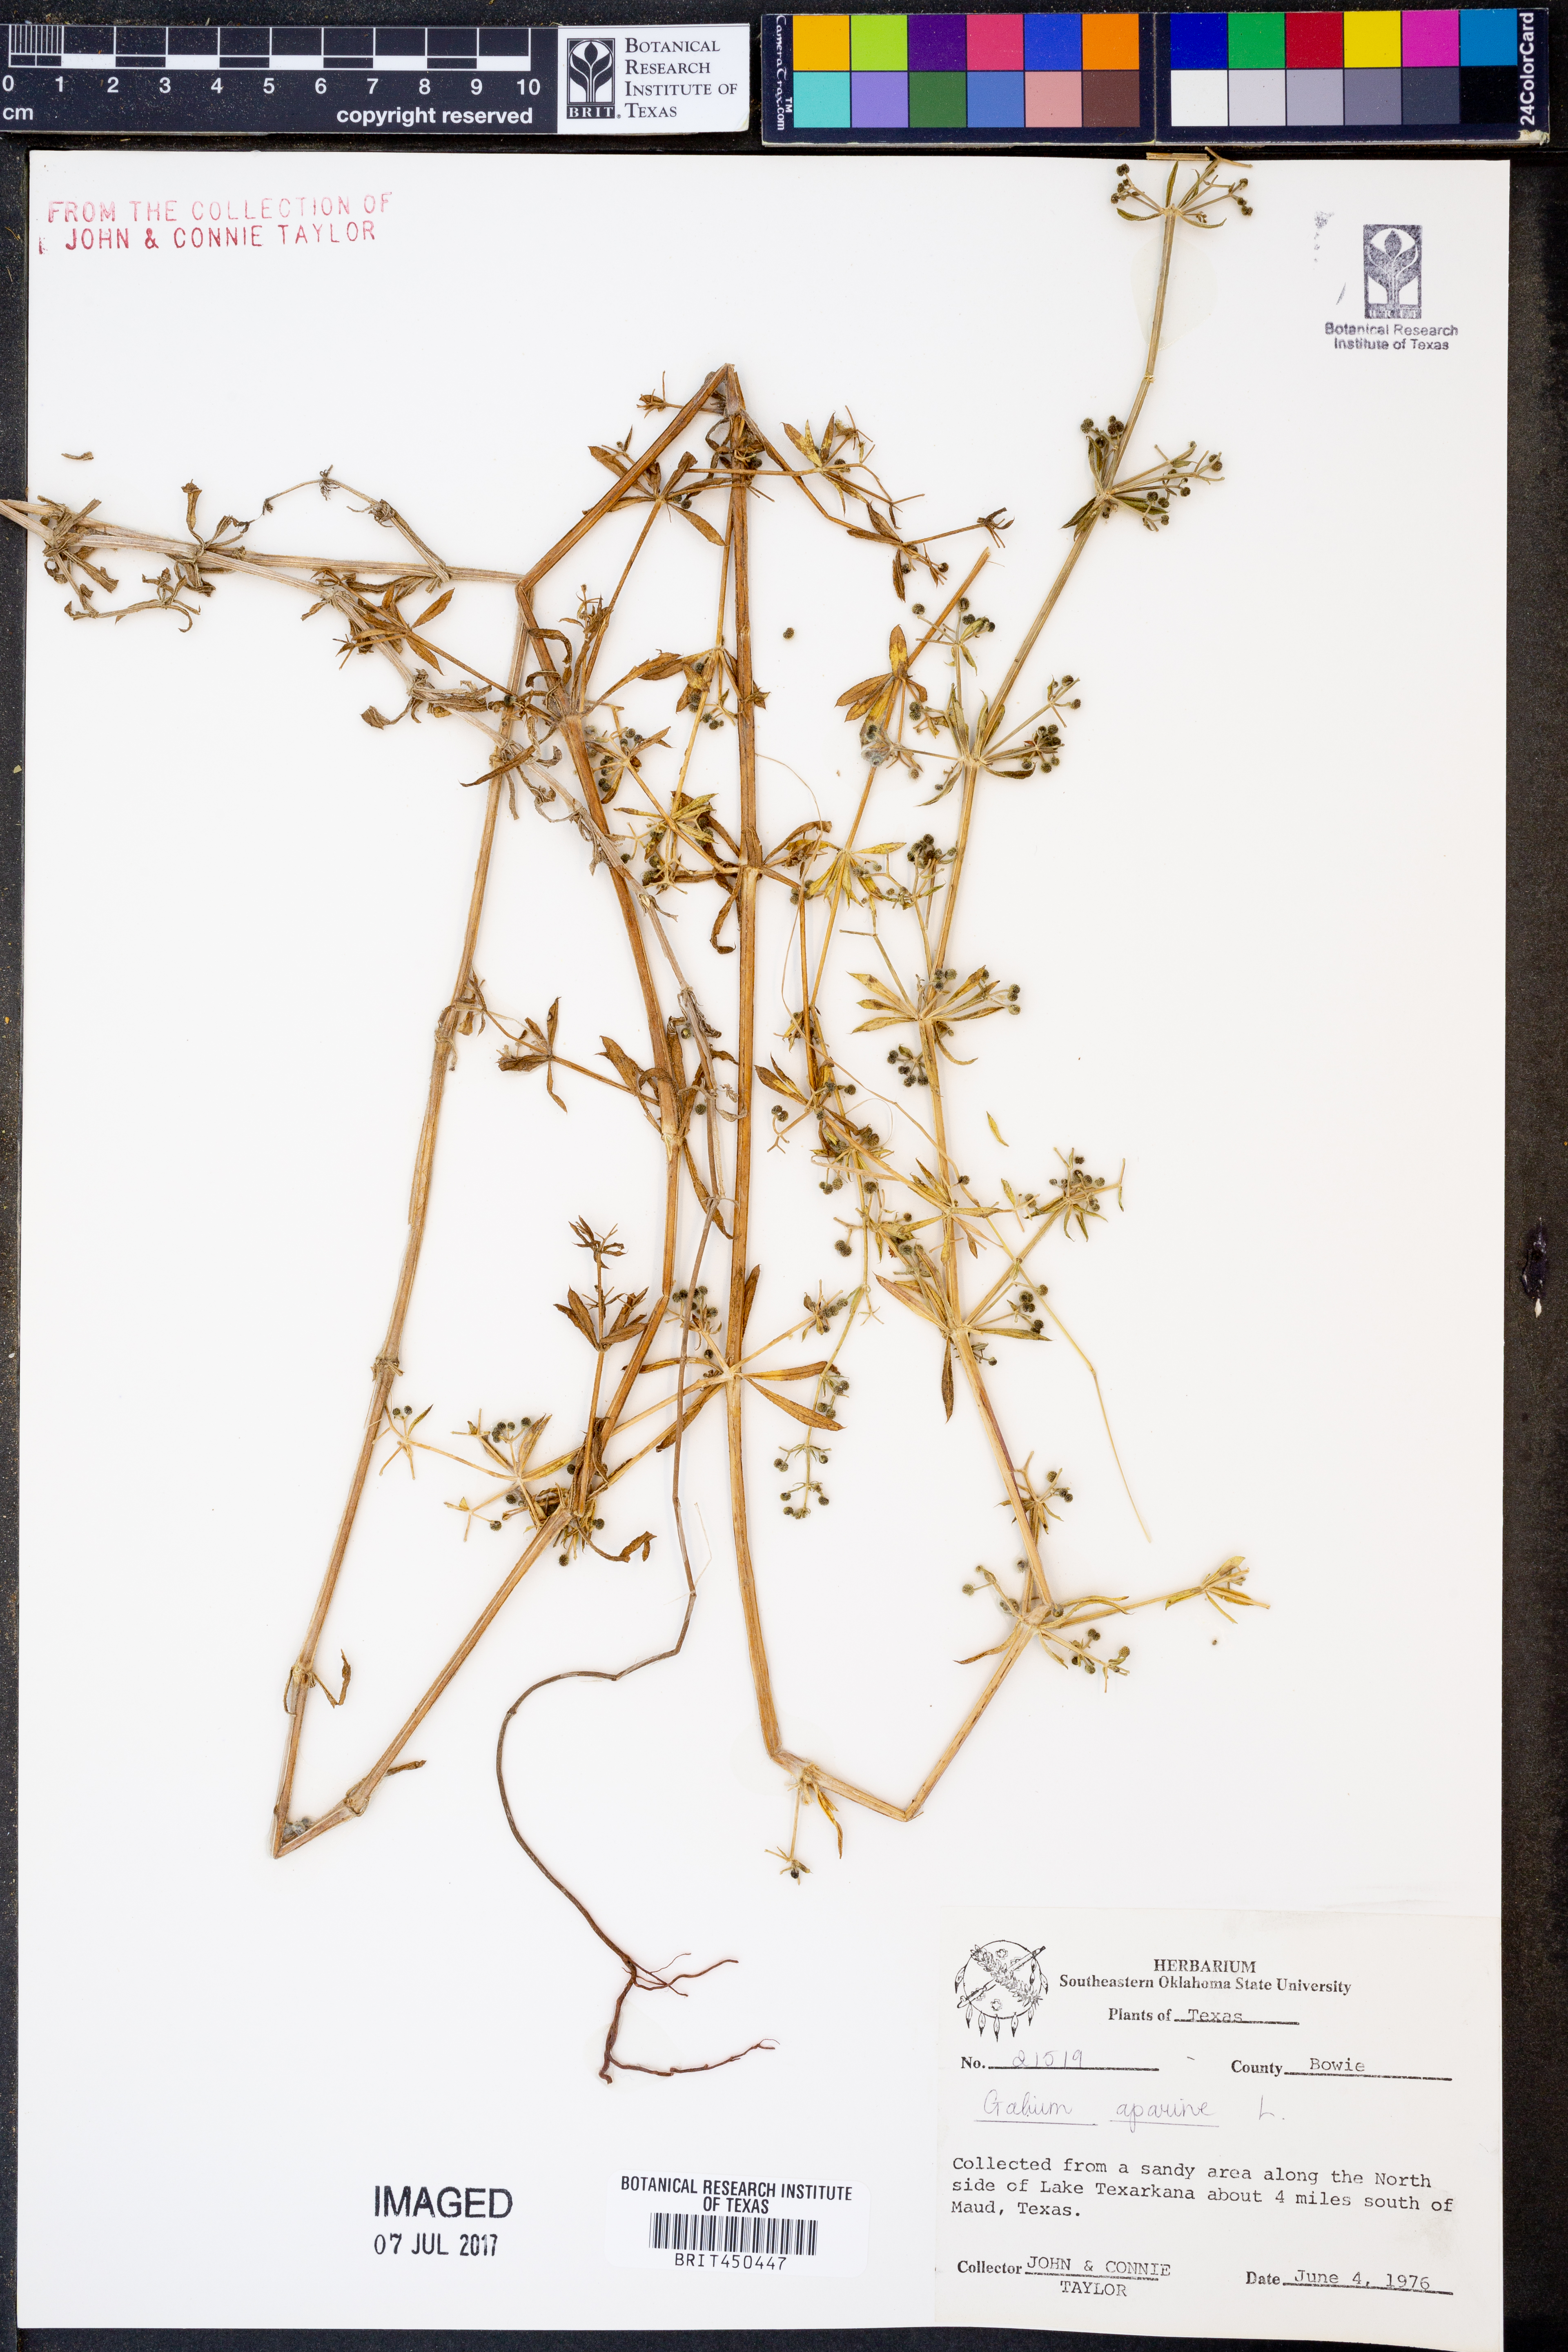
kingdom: Plantae
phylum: Tracheophyta
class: Magnoliopsida
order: Gentianales
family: Rubiaceae
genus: Galium
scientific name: Galium aparine
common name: Cleavers
